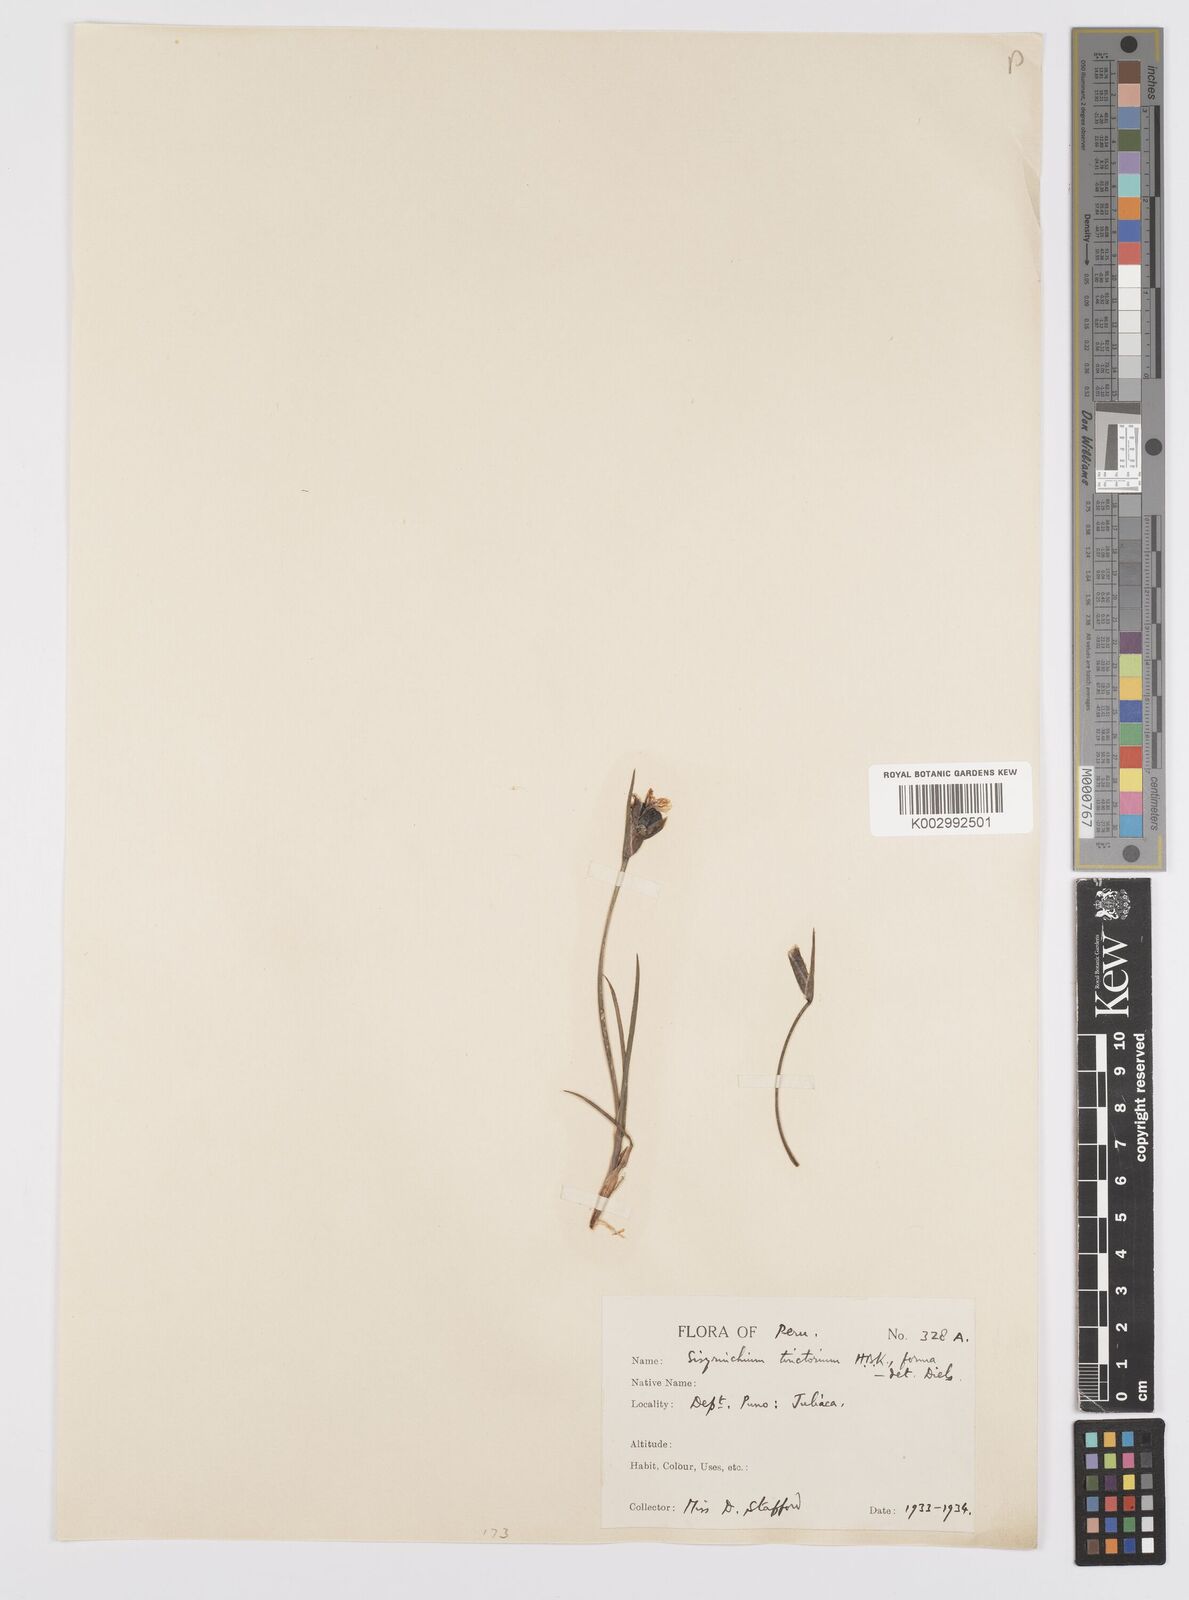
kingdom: Plantae
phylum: Tracheophyta
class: Liliopsida
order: Asparagales
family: Iridaceae
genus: Sisyrinchium
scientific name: Sisyrinchium tinctorium
